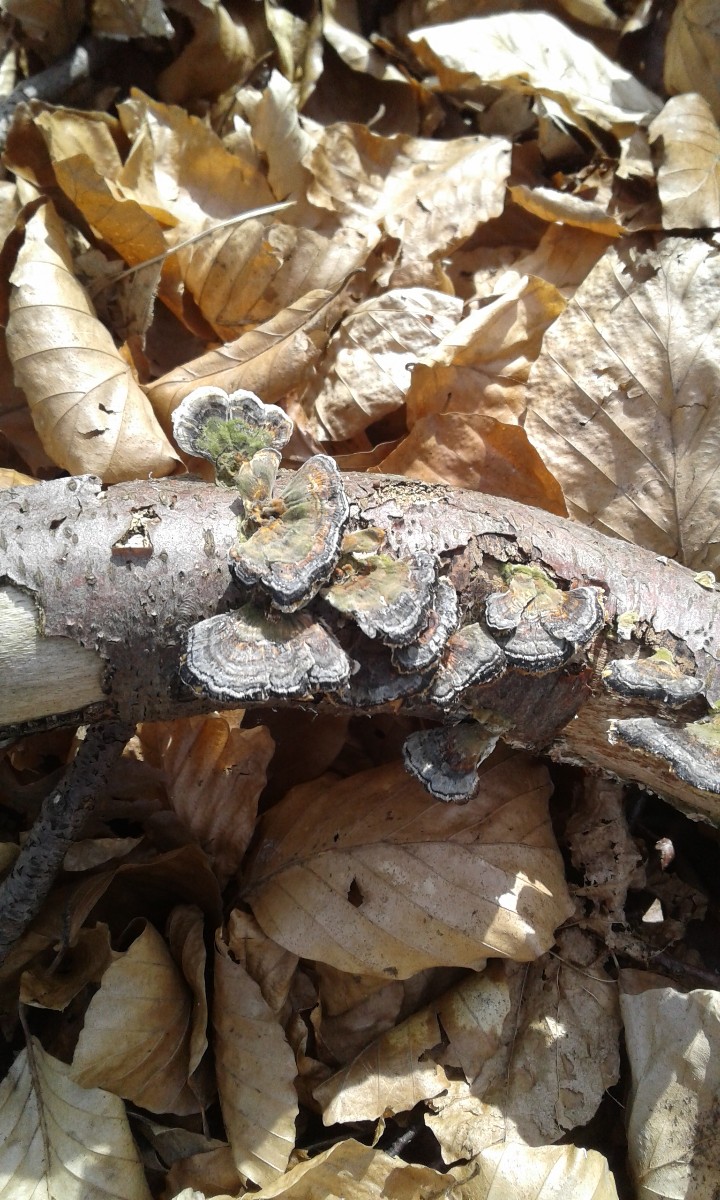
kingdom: Fungi
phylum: Basidiomycota
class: Agaricomycetes
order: Polyporales
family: Polyporaceae
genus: Trametes
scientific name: Trametes versicolor
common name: broget læderporesvamp
